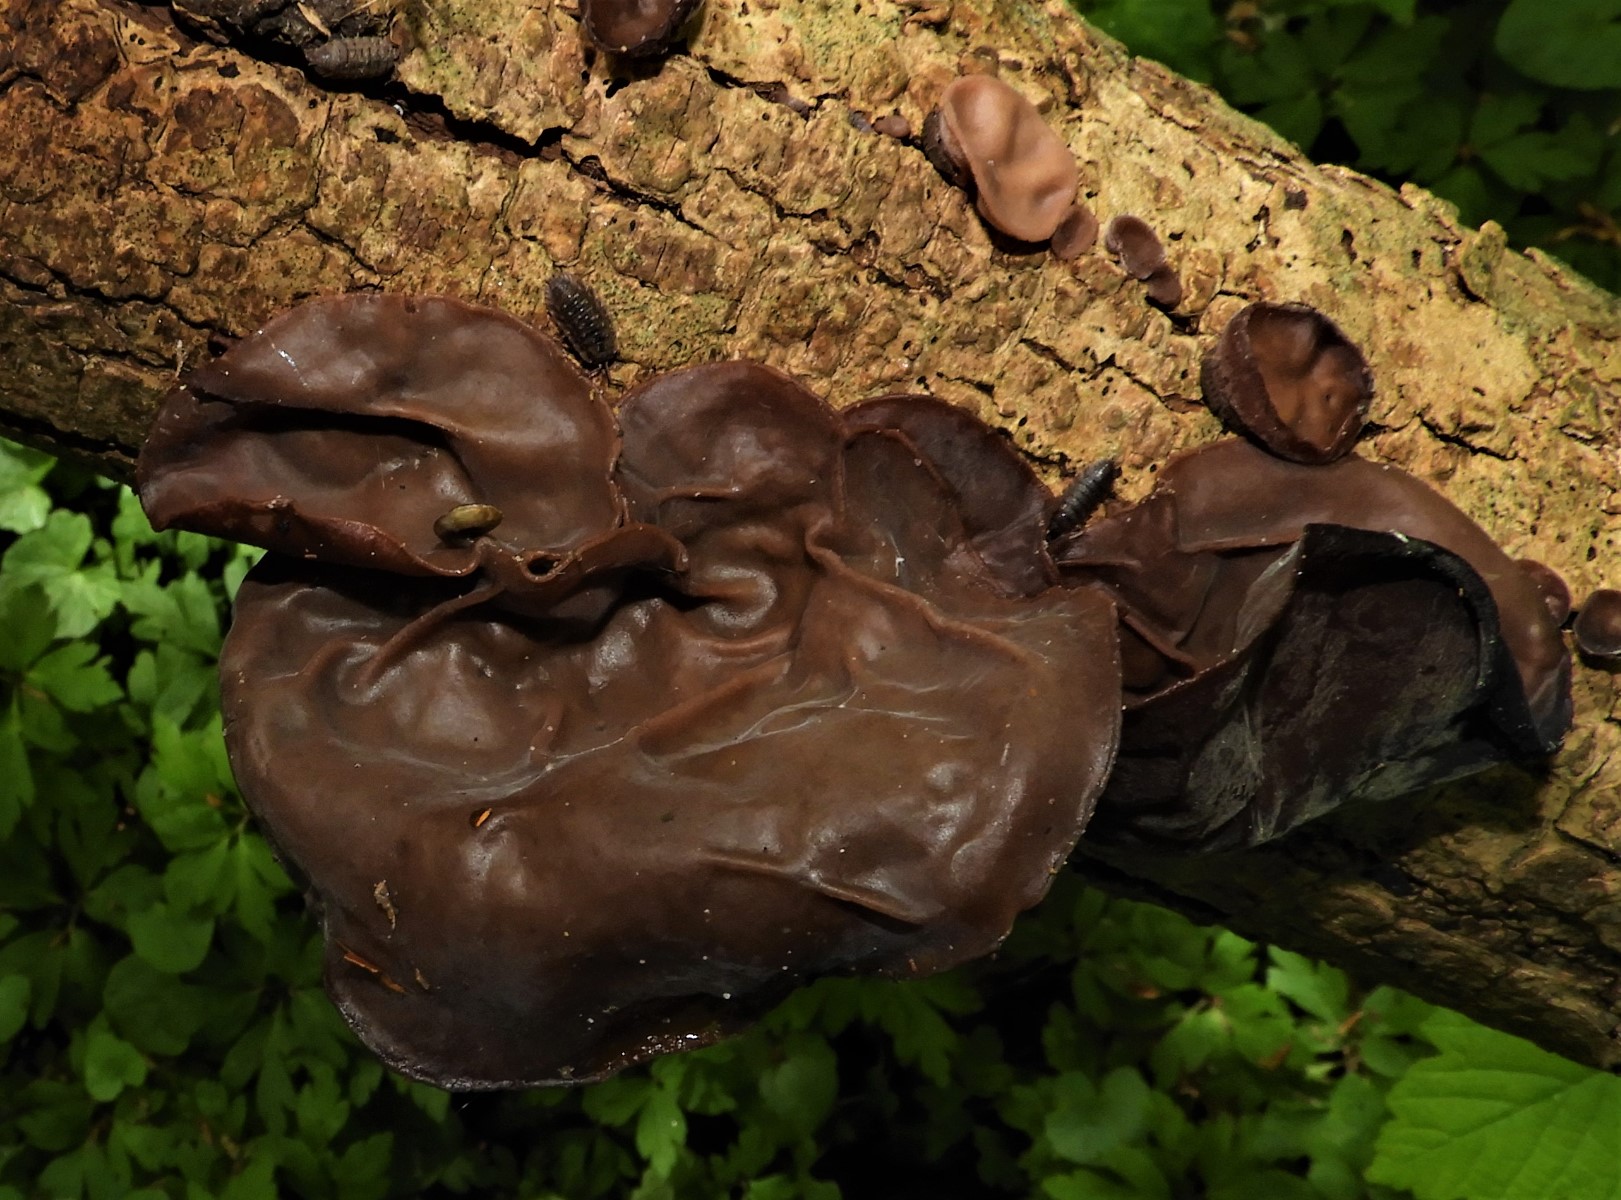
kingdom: Fungi
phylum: Basidiomycota
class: Agaricomycetes
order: Auriculariales
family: Auriculariaceae
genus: Auricularia
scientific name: Auricularia auricula-judae
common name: almindelig judasøre
